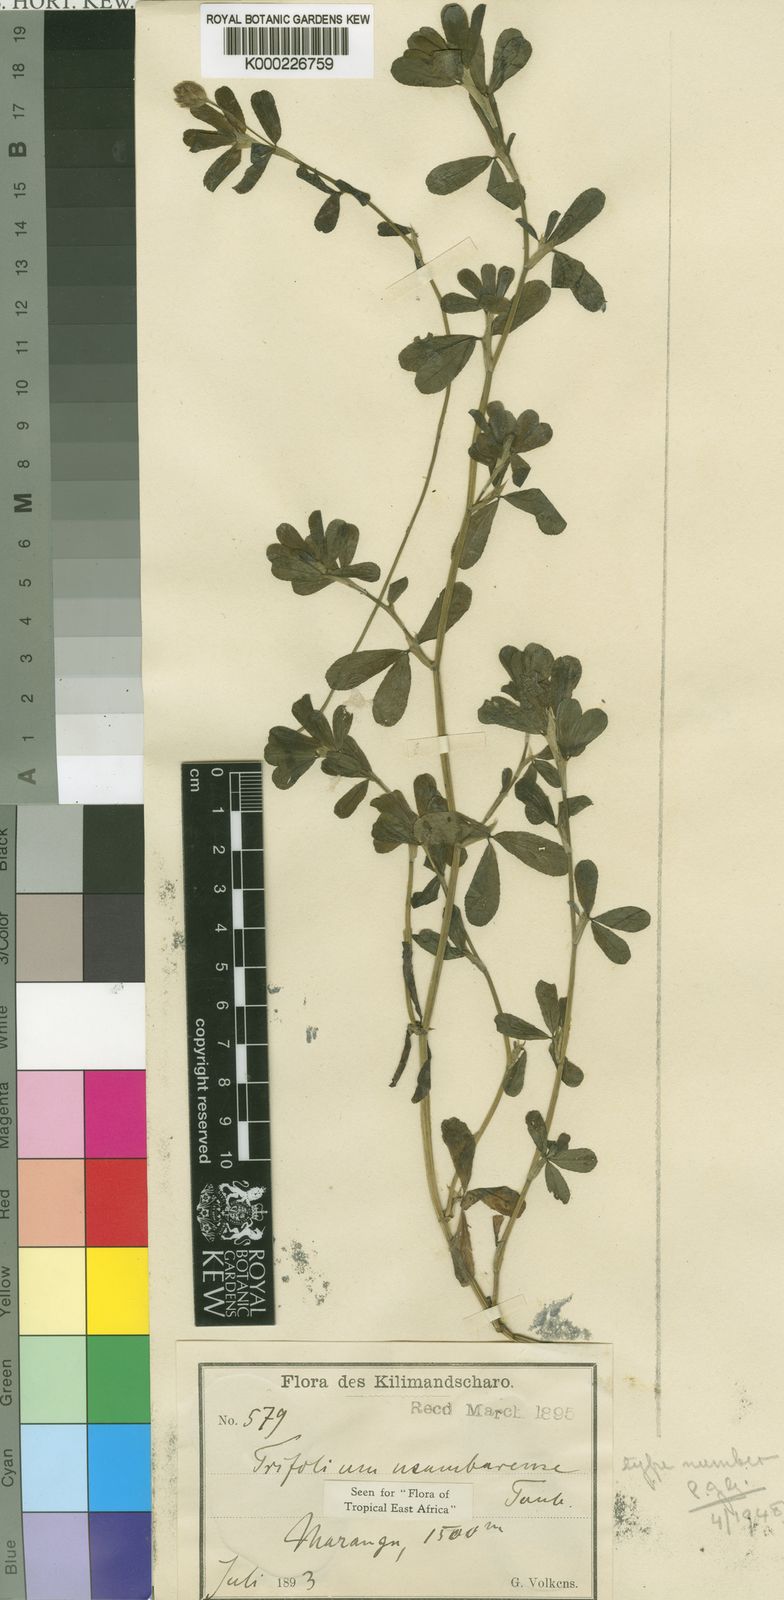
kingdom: Plantae
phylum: Tracheophyta
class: Magnoliopsida
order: Fabales
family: Fabaceae
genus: Trifolium
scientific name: Trifolium usambarense
